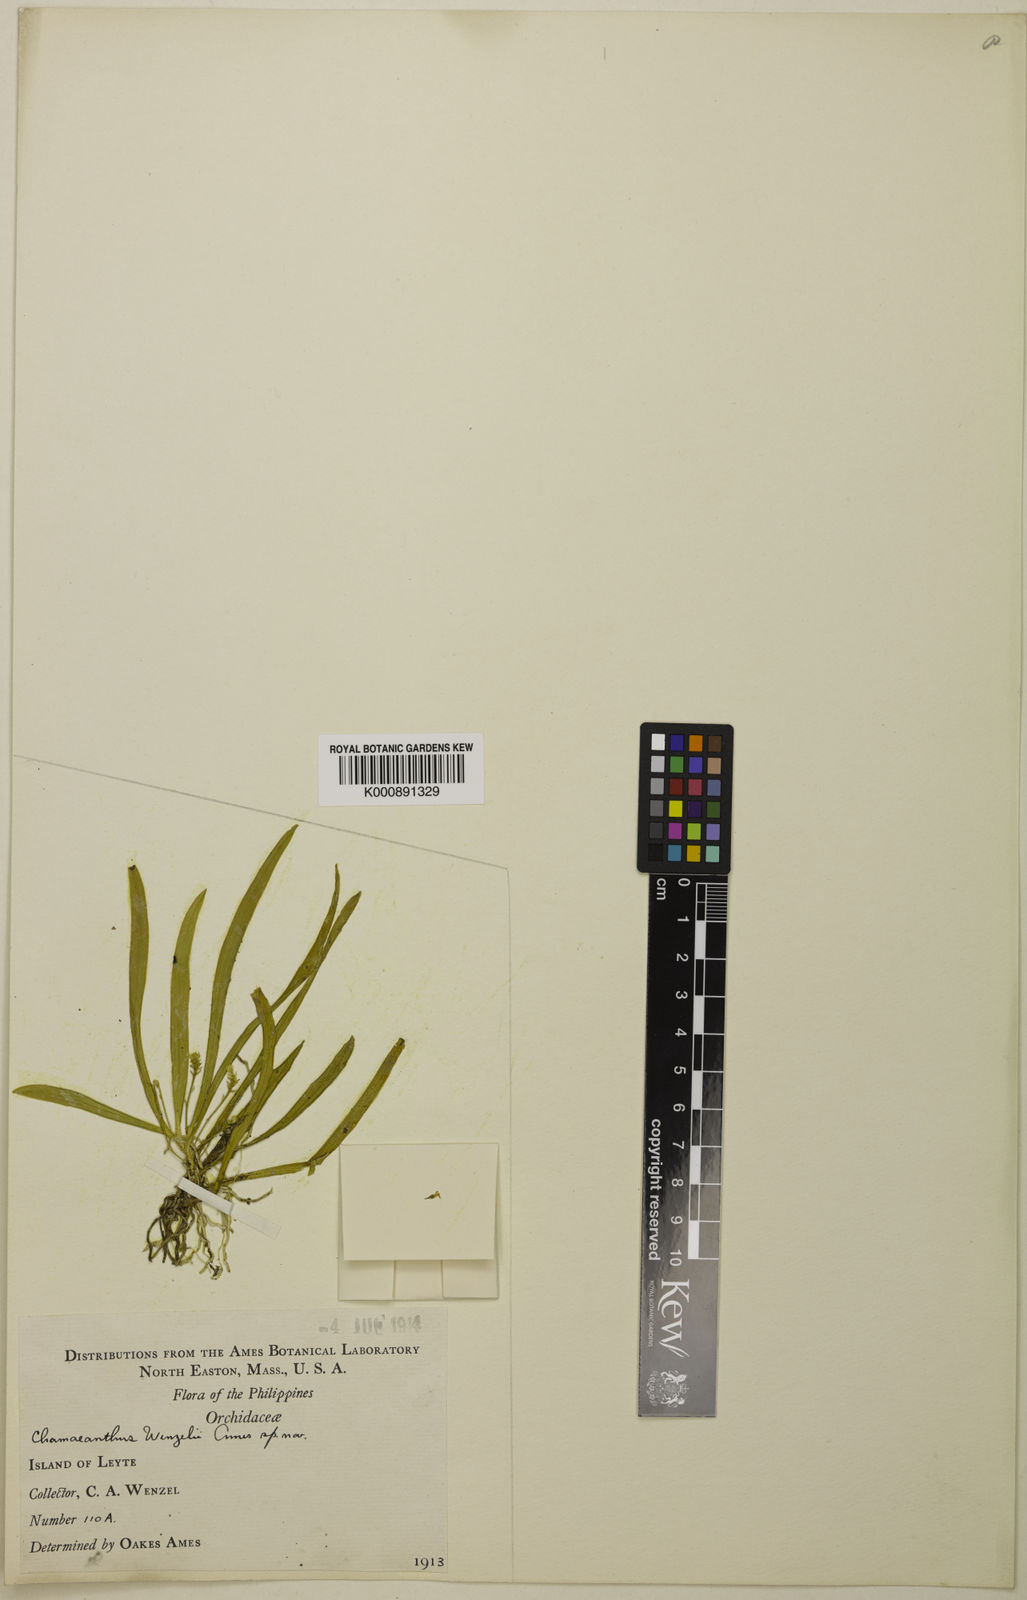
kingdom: Plantae
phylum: Tracheophyta
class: Liliopsida
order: Asparagales
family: Orchidaceae
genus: Chamaeanthus
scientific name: Chamaeanthus wenzelii
